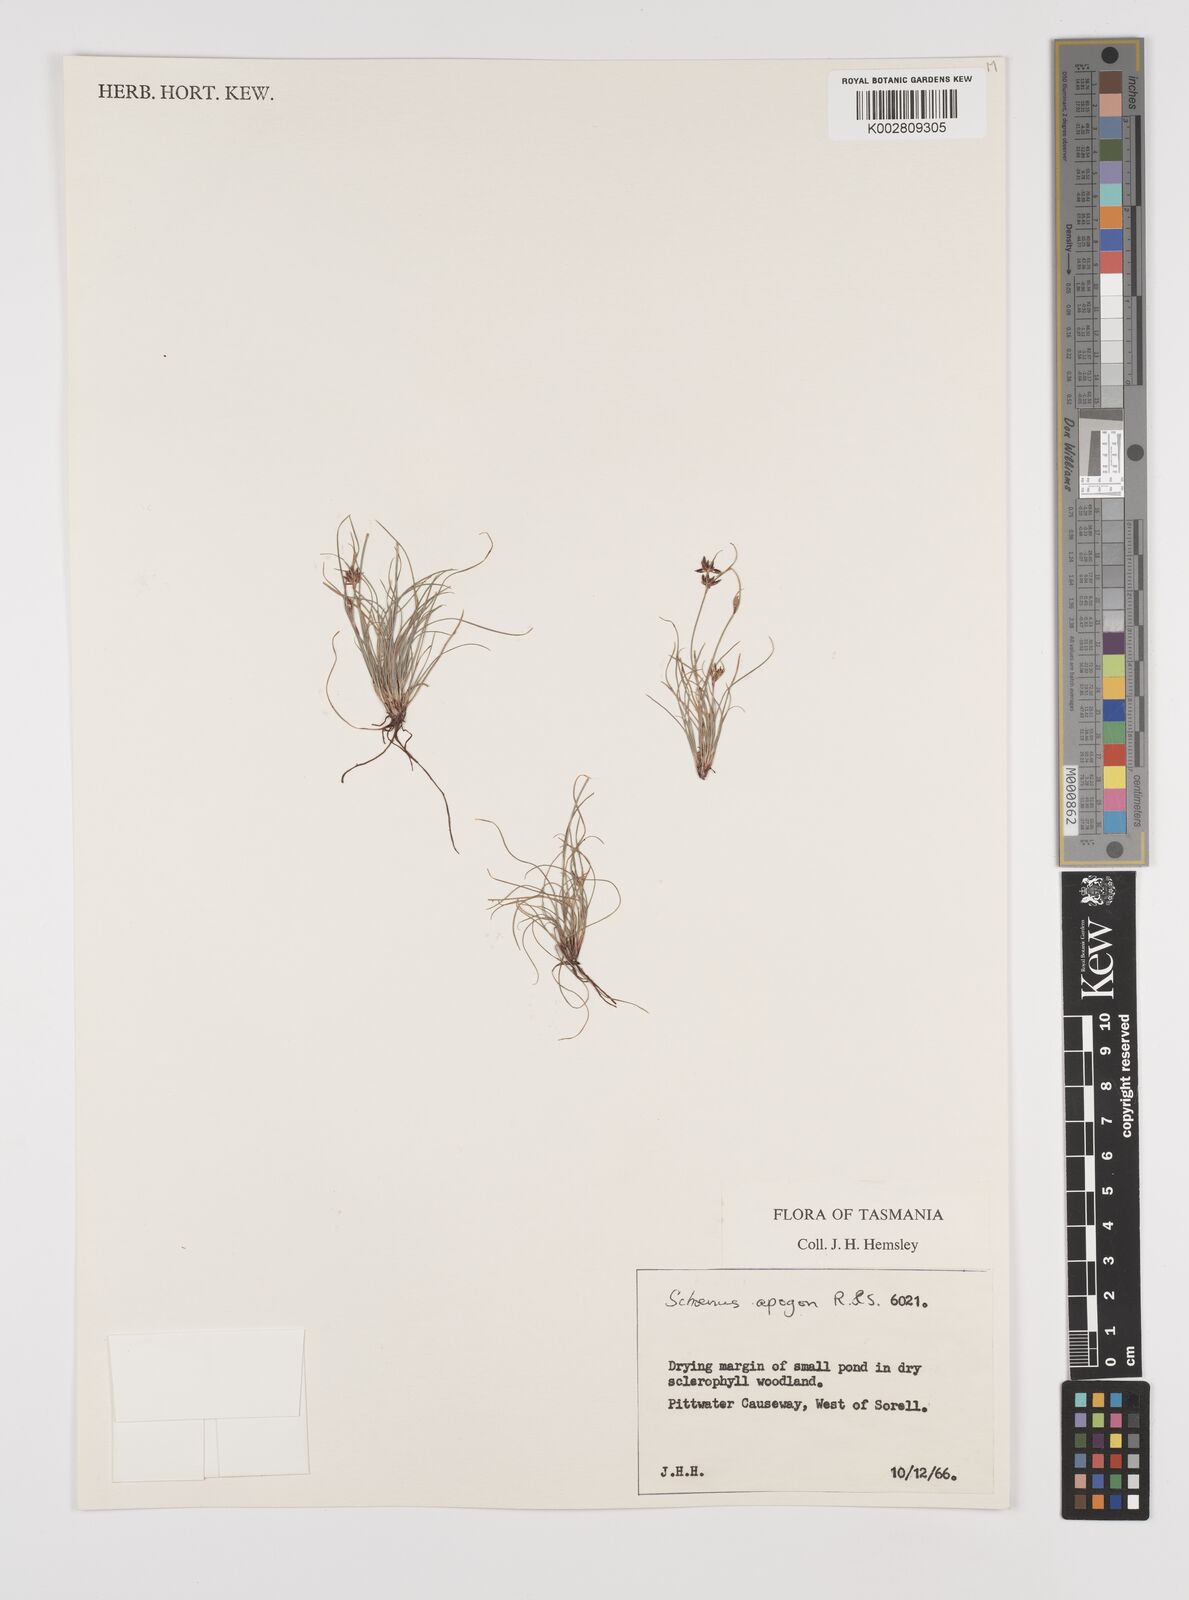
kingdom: Plantae
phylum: Tracheophyta
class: Liliopsida
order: Poales
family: Cyperaceae
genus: Schoenus
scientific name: Schoenus apogon
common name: Smooth bogrush
